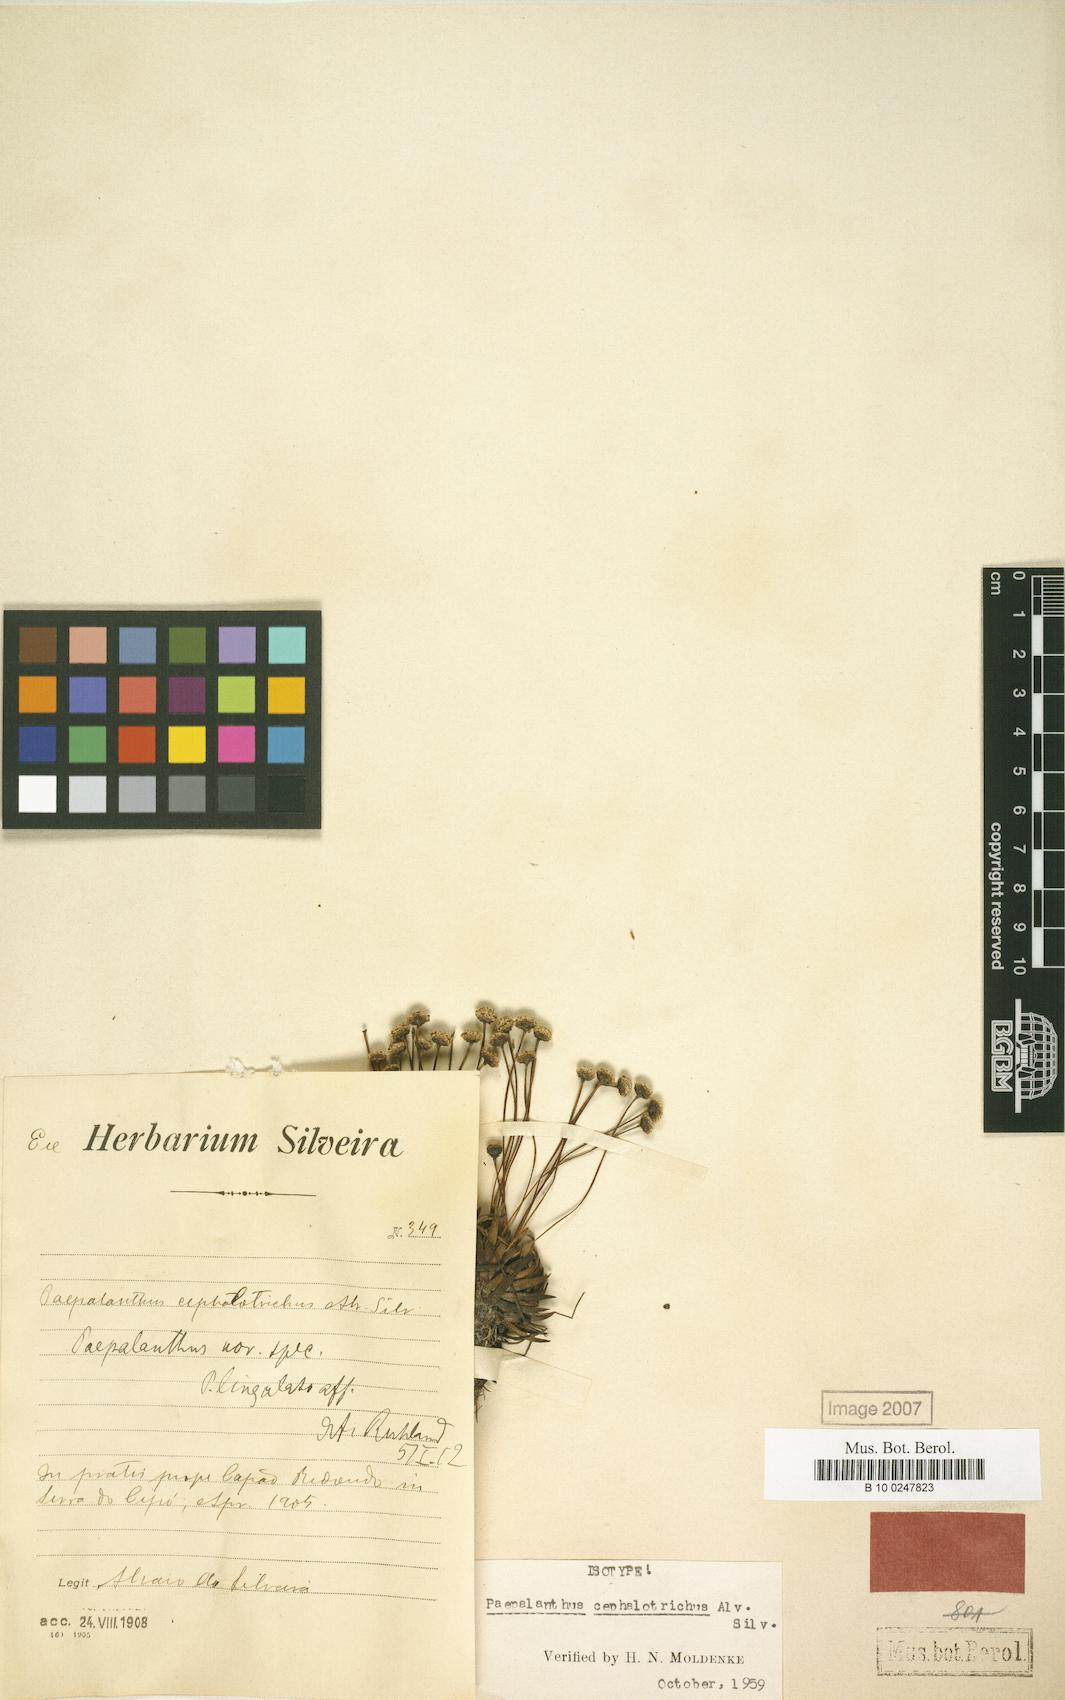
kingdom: Plantae
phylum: Tracheophyta
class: Liliopsida
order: Poales
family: Eriocaulaceae
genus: Paepalanthus
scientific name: Paepalanthus cephalotrichus
